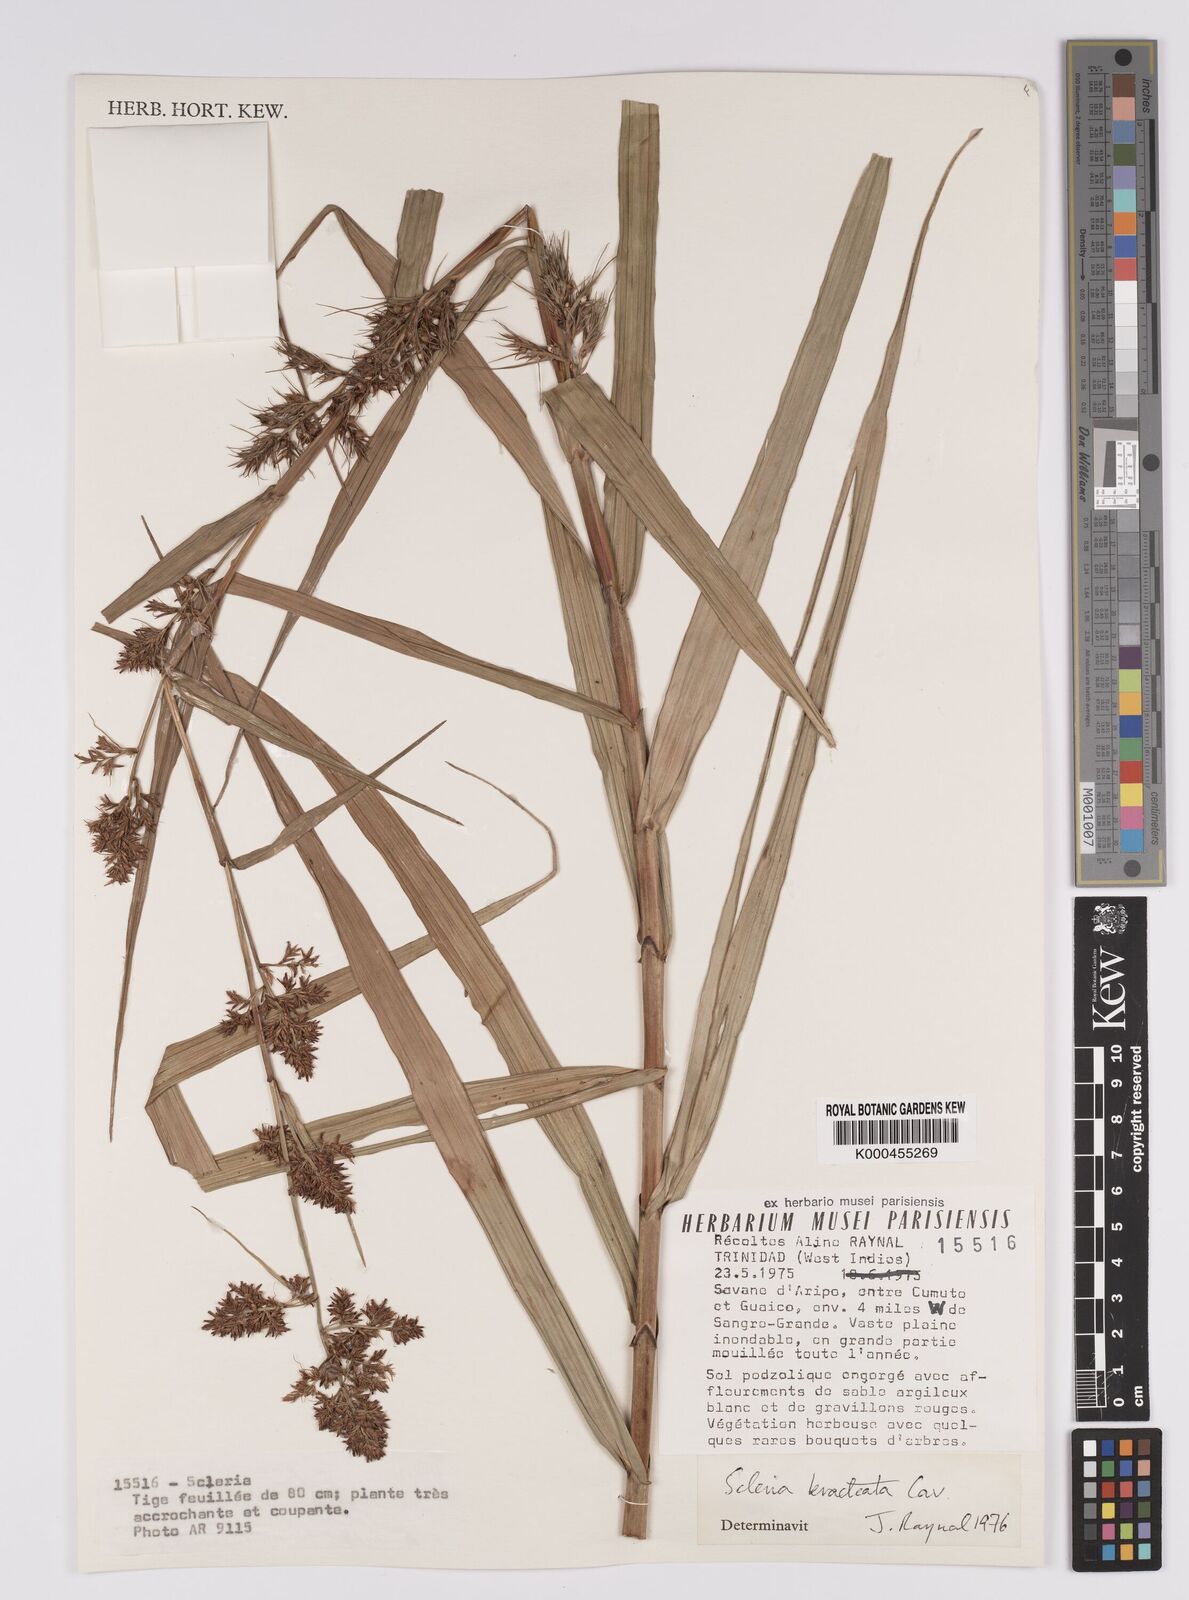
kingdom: Plantae
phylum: Tracheophyta
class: Liliopsida
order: Poales
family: Cyperaceae
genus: Scleria
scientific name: Scleria bracteata
